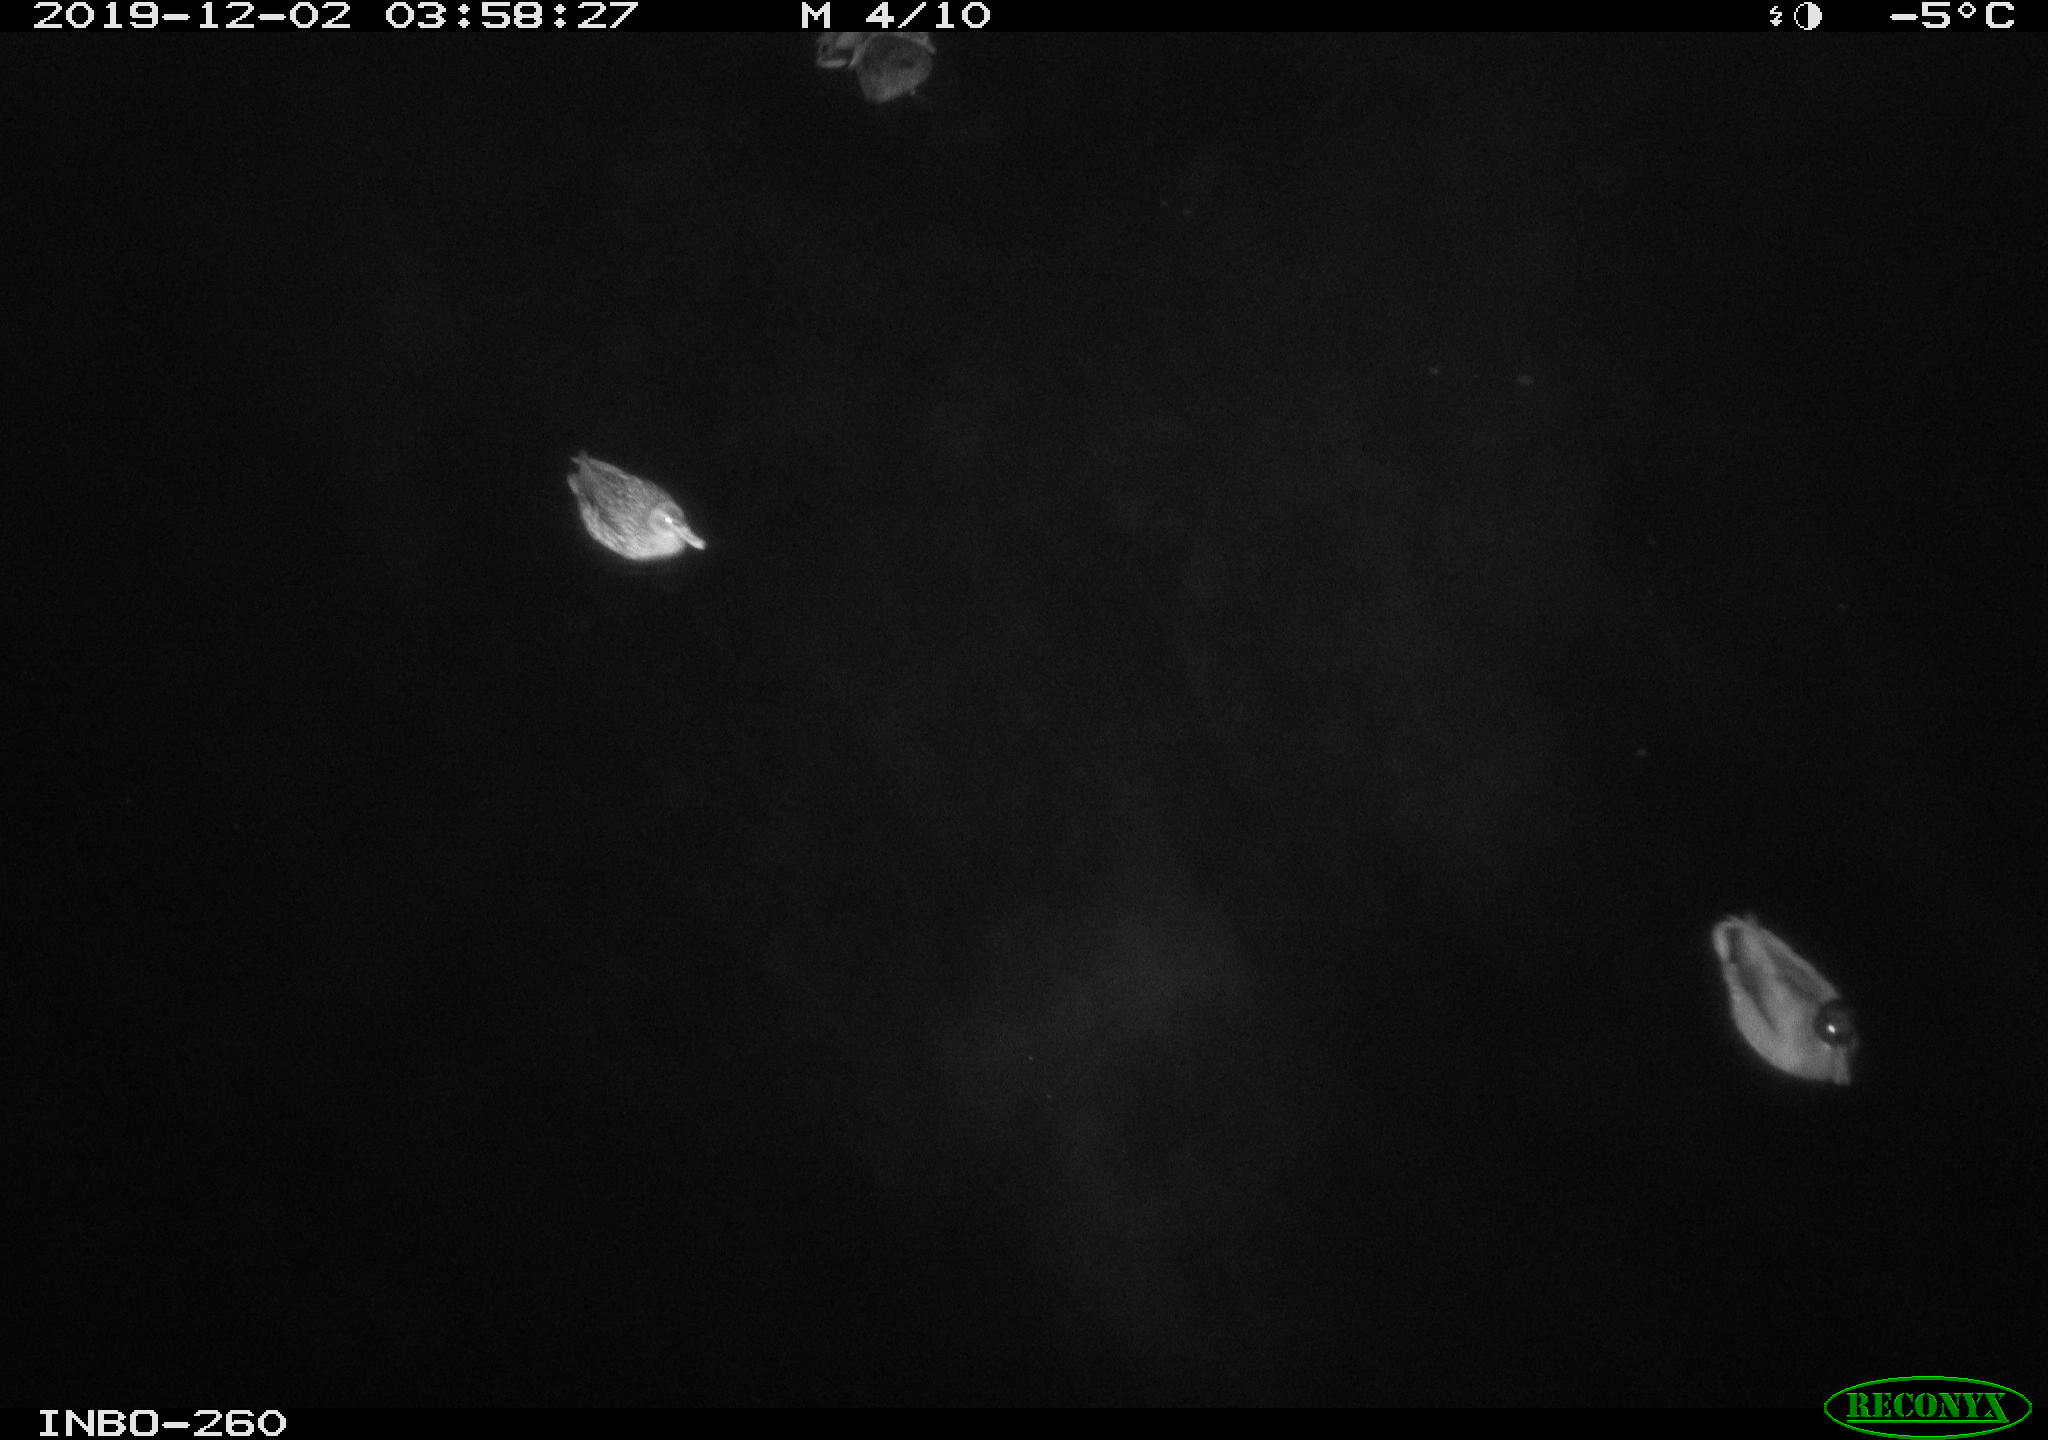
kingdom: Animalia
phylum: Chordata
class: Aves
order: Anseriformes
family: Anatidae
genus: Anas
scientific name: Anas platyrhynchos
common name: Mallard
